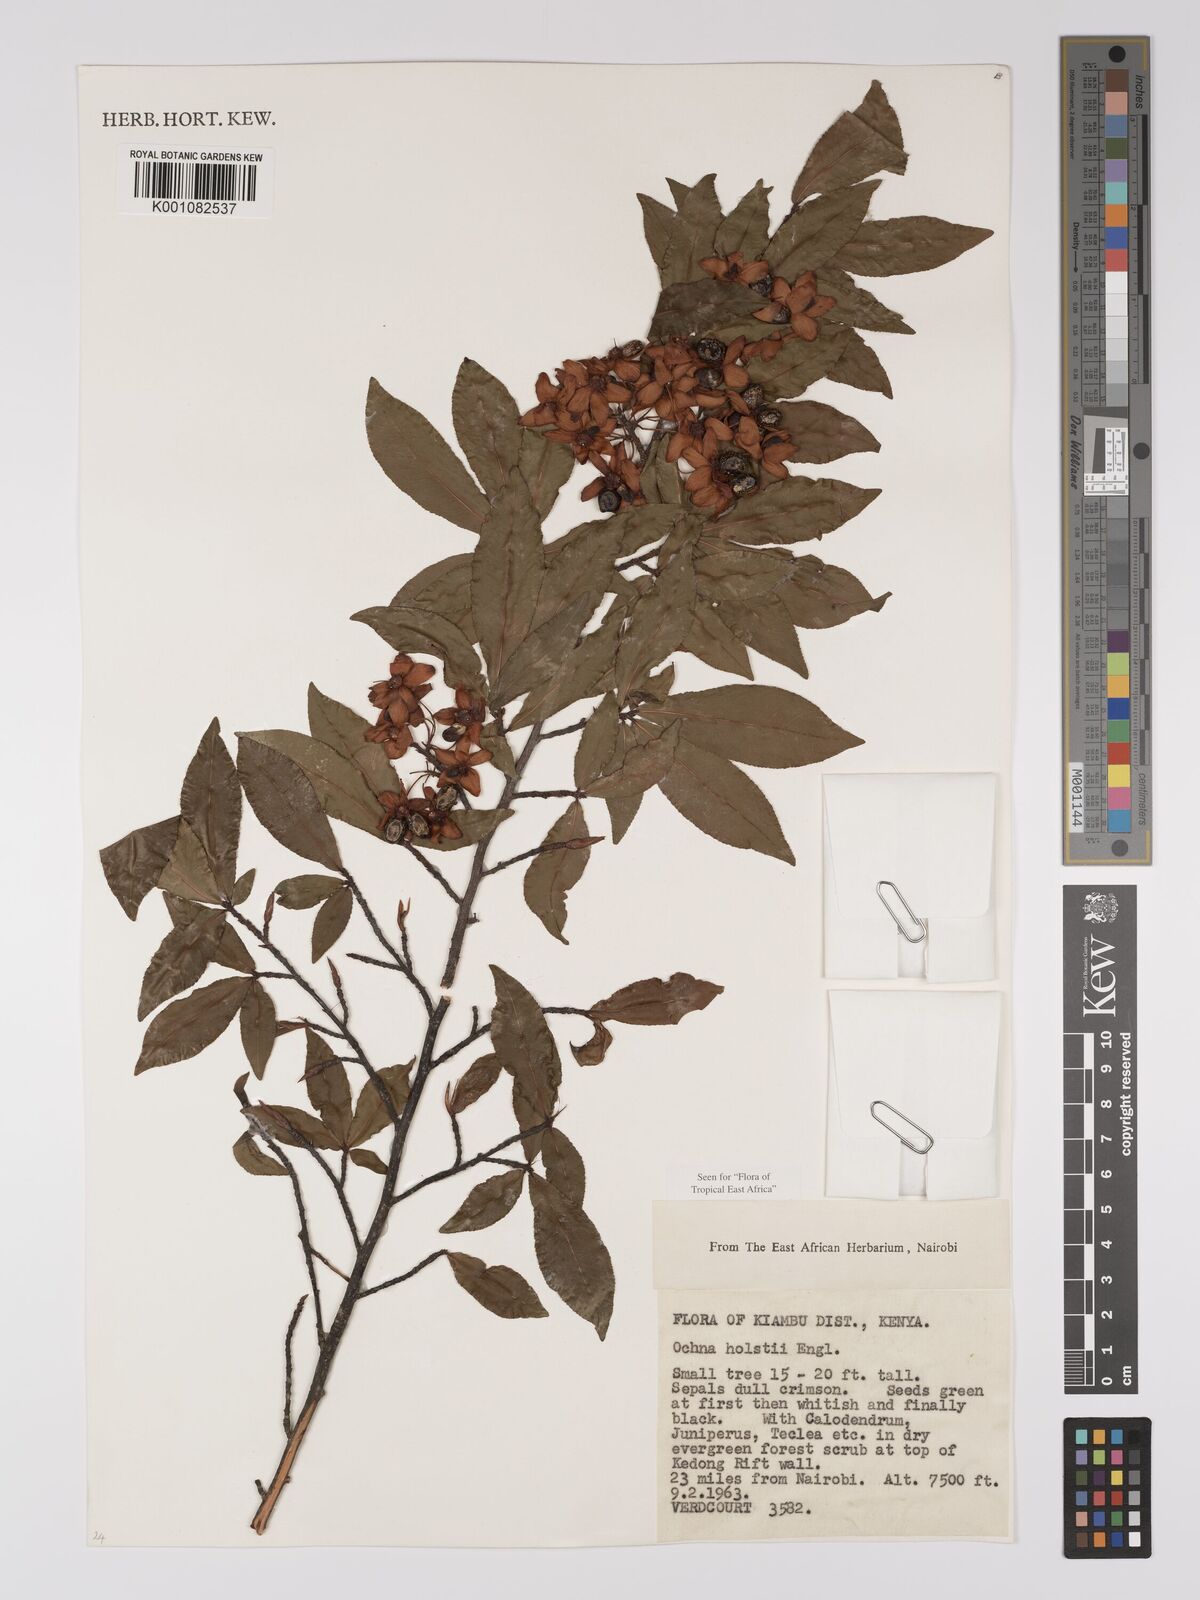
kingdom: Plantae
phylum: Tracheophyta
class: Magnoliopsida
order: Malpighiales
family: Ochnaceae
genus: Ochna
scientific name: Ochna holstii
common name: Red ironwood
